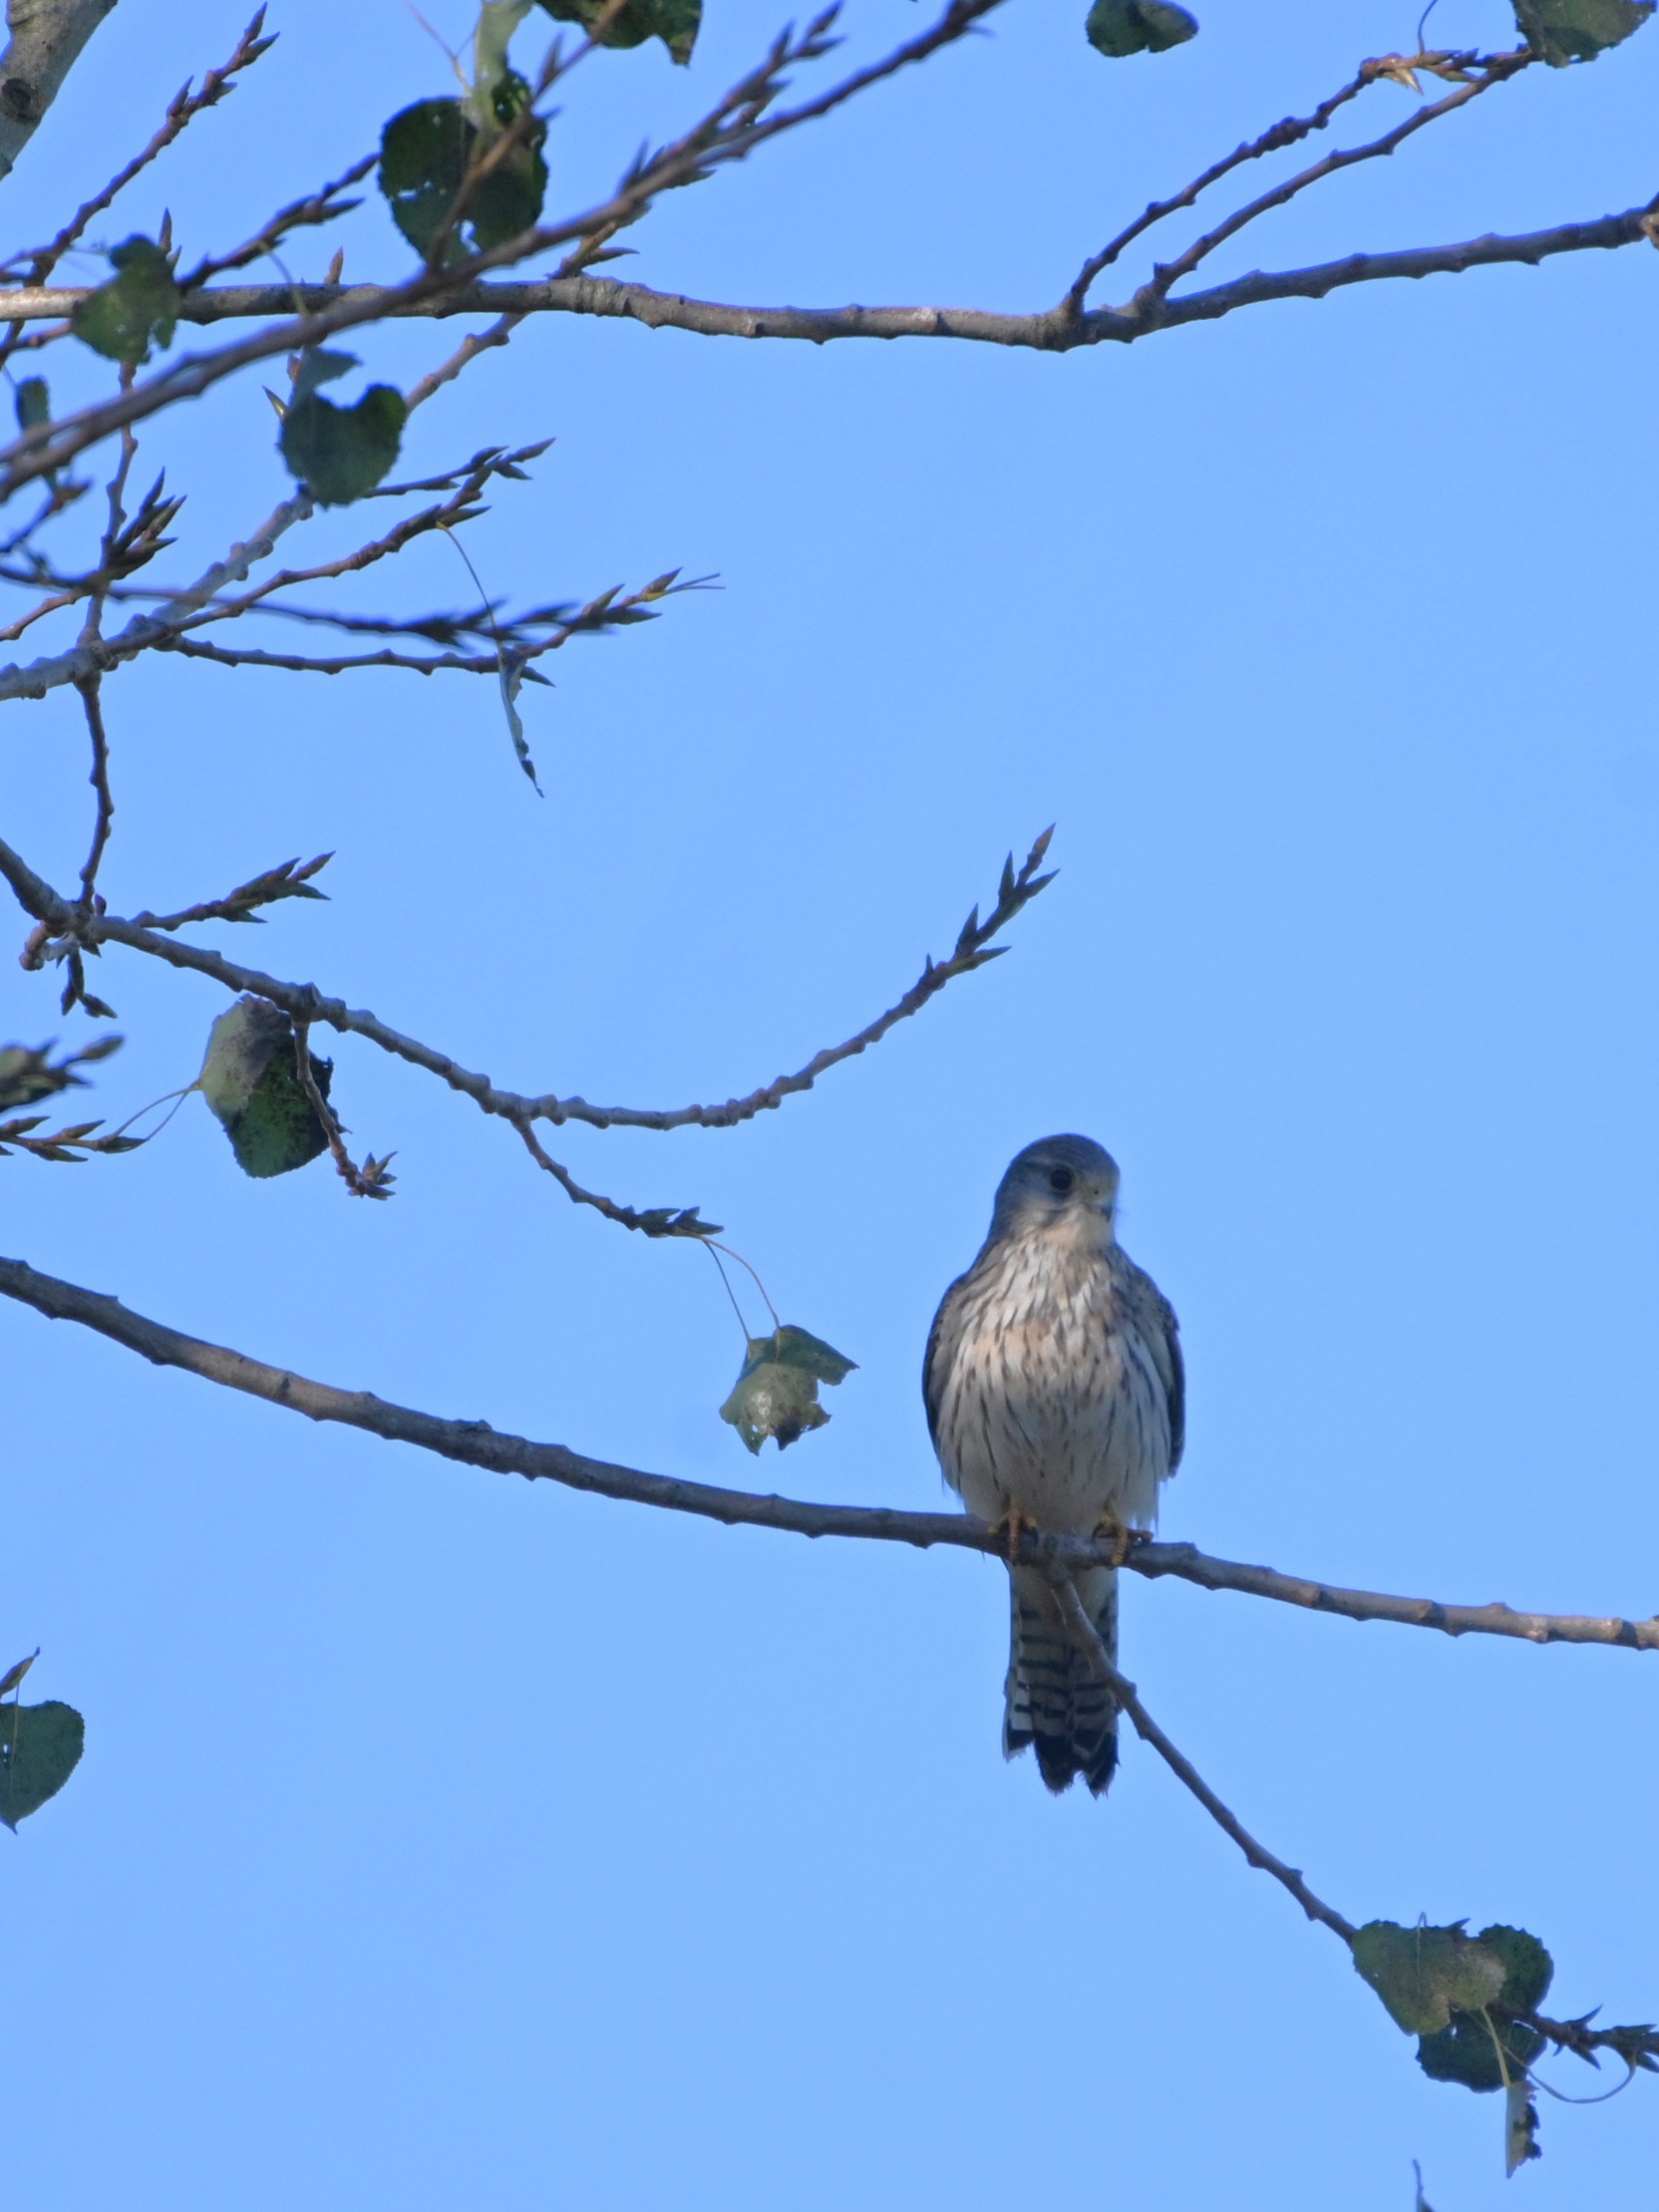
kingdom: Animalia
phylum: Chordata
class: Aves
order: Falconiformes
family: Falconidae
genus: Falco
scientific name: Falco tinnunculus
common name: Tårnfalk
